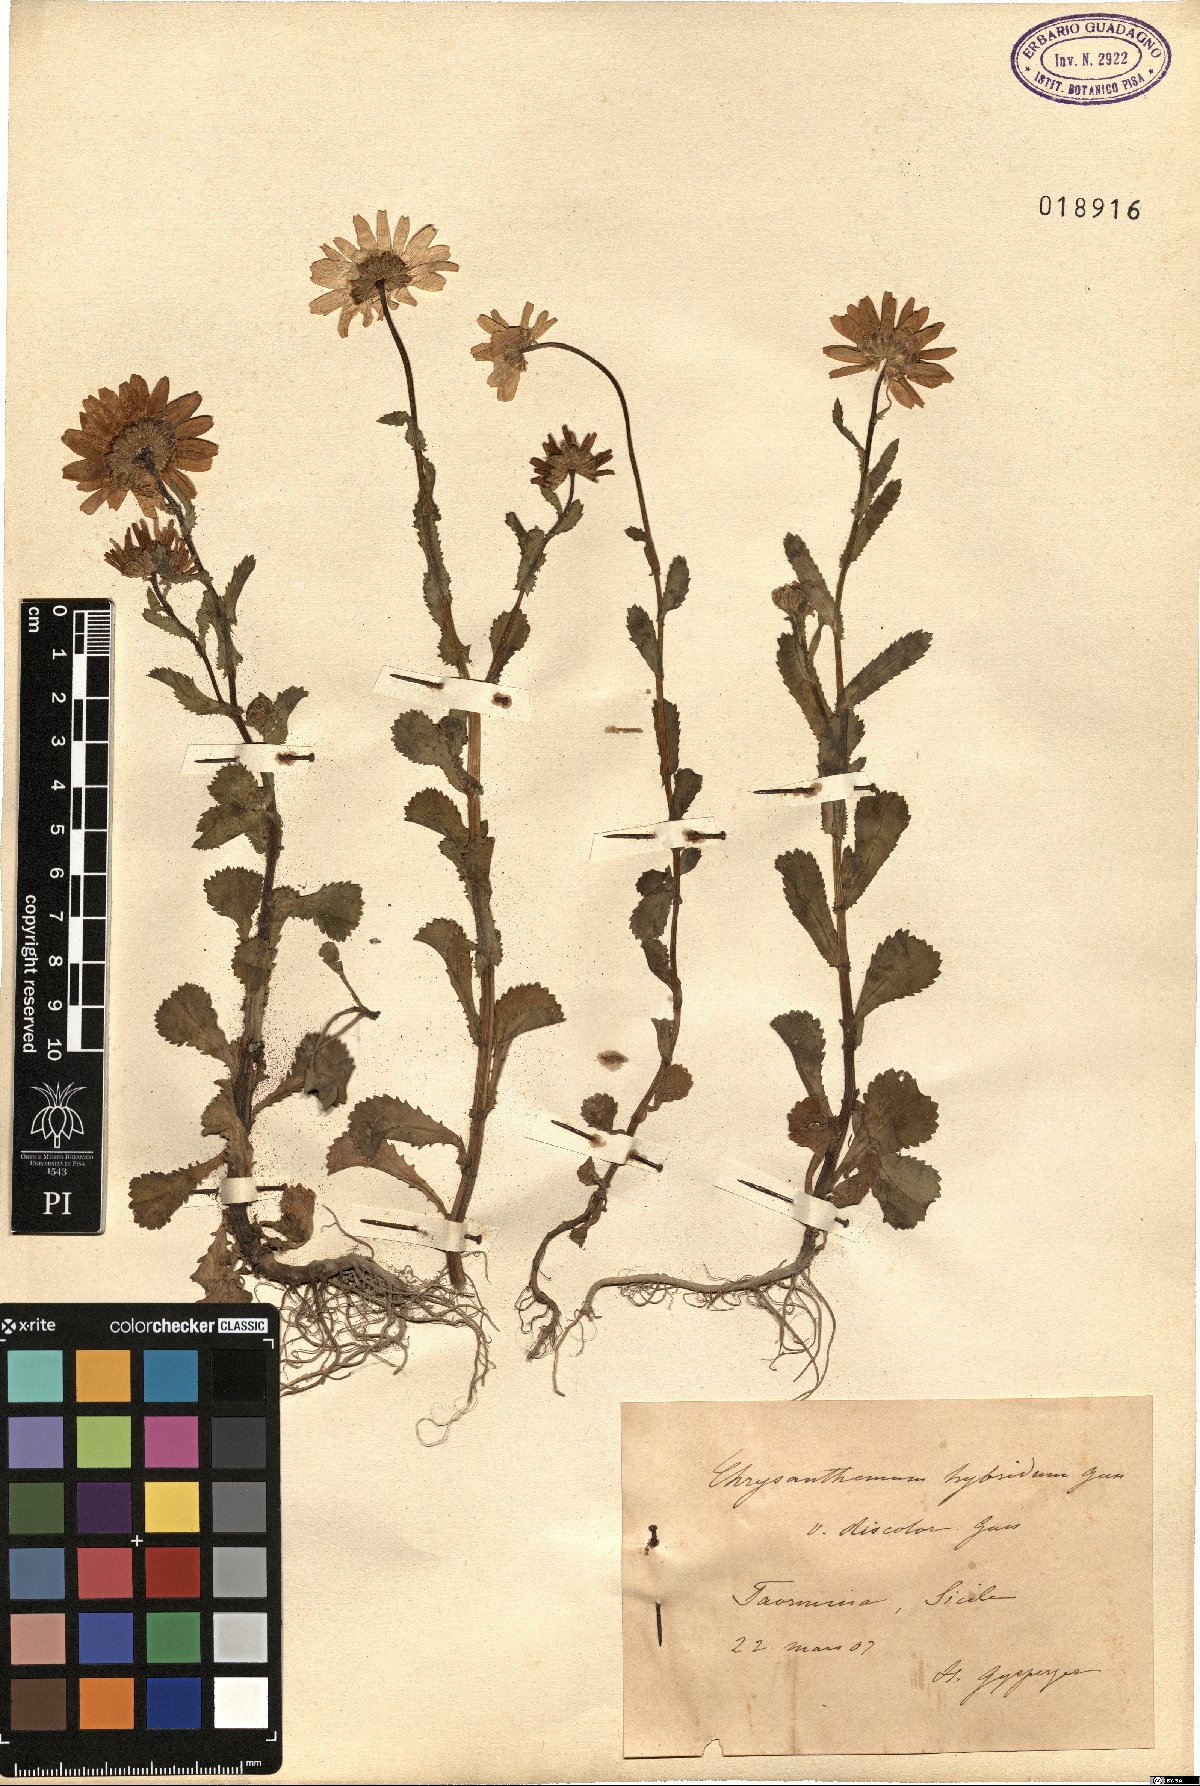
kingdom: Plantae
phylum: Tracheophyta
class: Magnoliopsida
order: Asterales
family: Asteraceae
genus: Coleostephus
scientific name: Coleostephus myconis
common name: Mediterranean marigold
